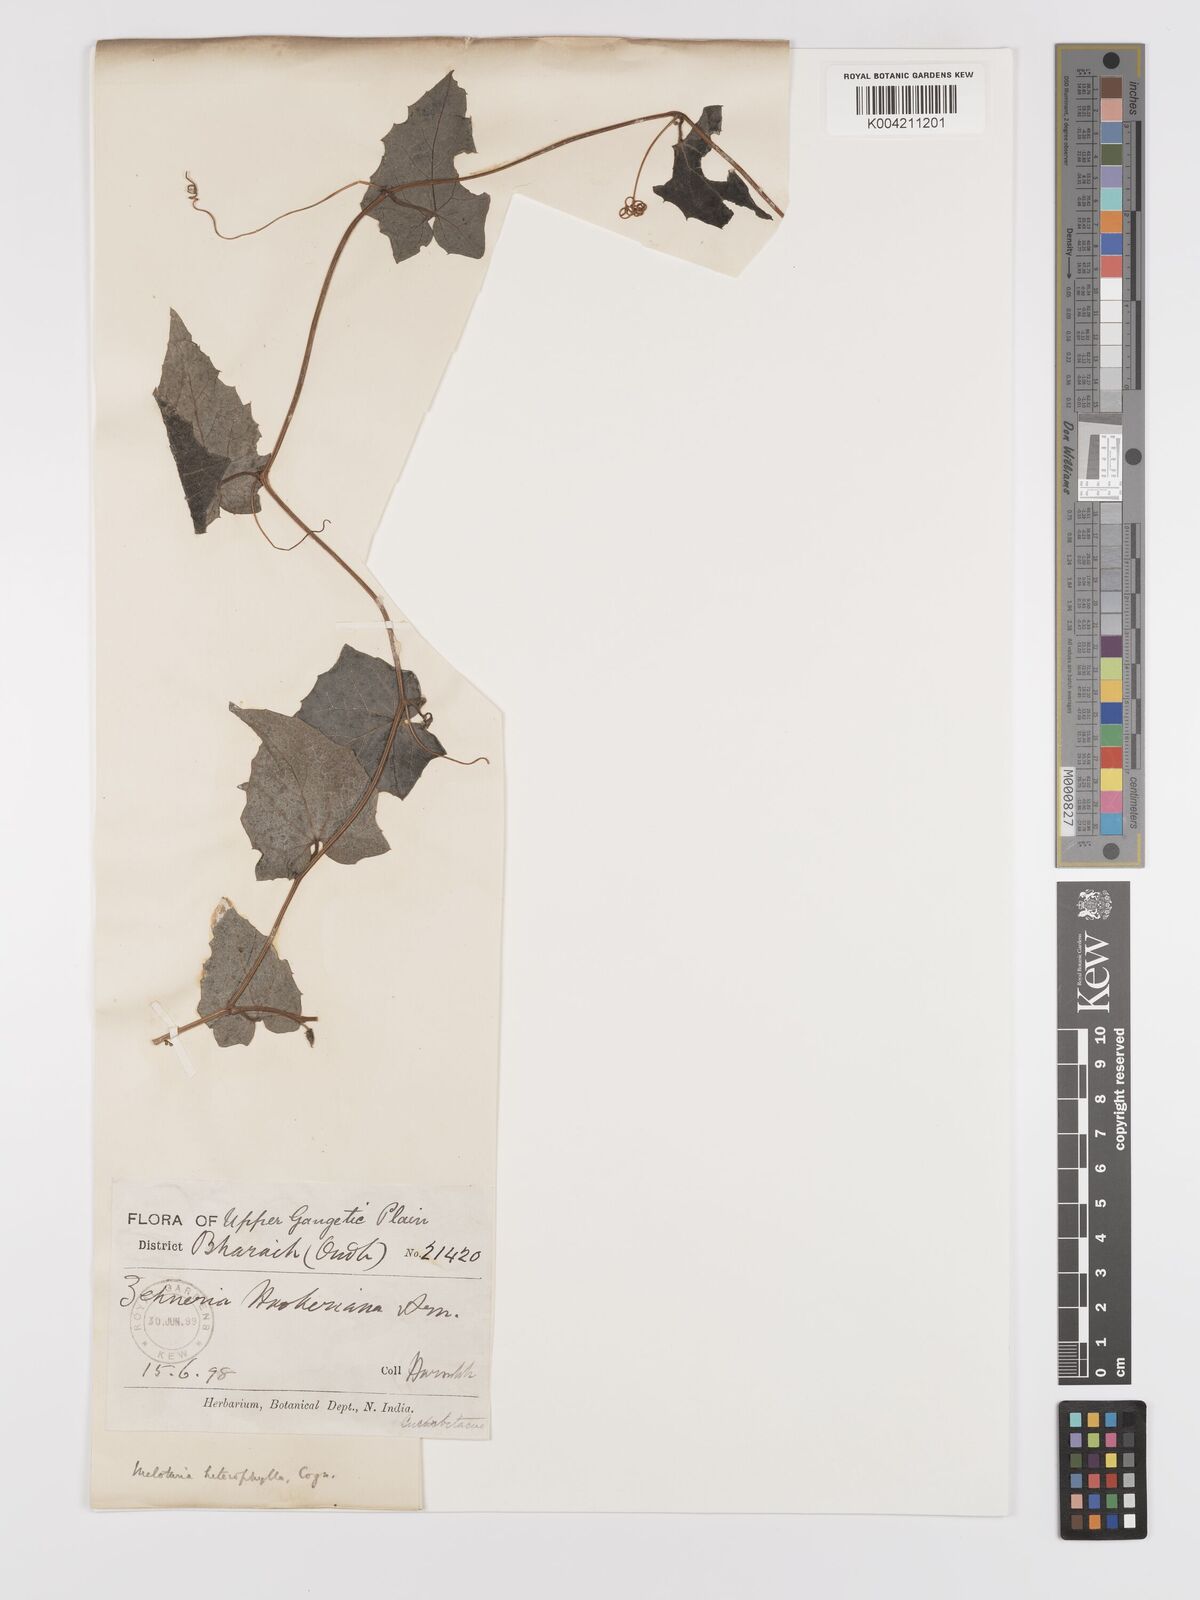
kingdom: Plantae
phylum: Tracheophyta
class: Magnoliopsida
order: Cucurbitales
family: Cucurbitaceae
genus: Solena
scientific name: Solena amplexicaulis
